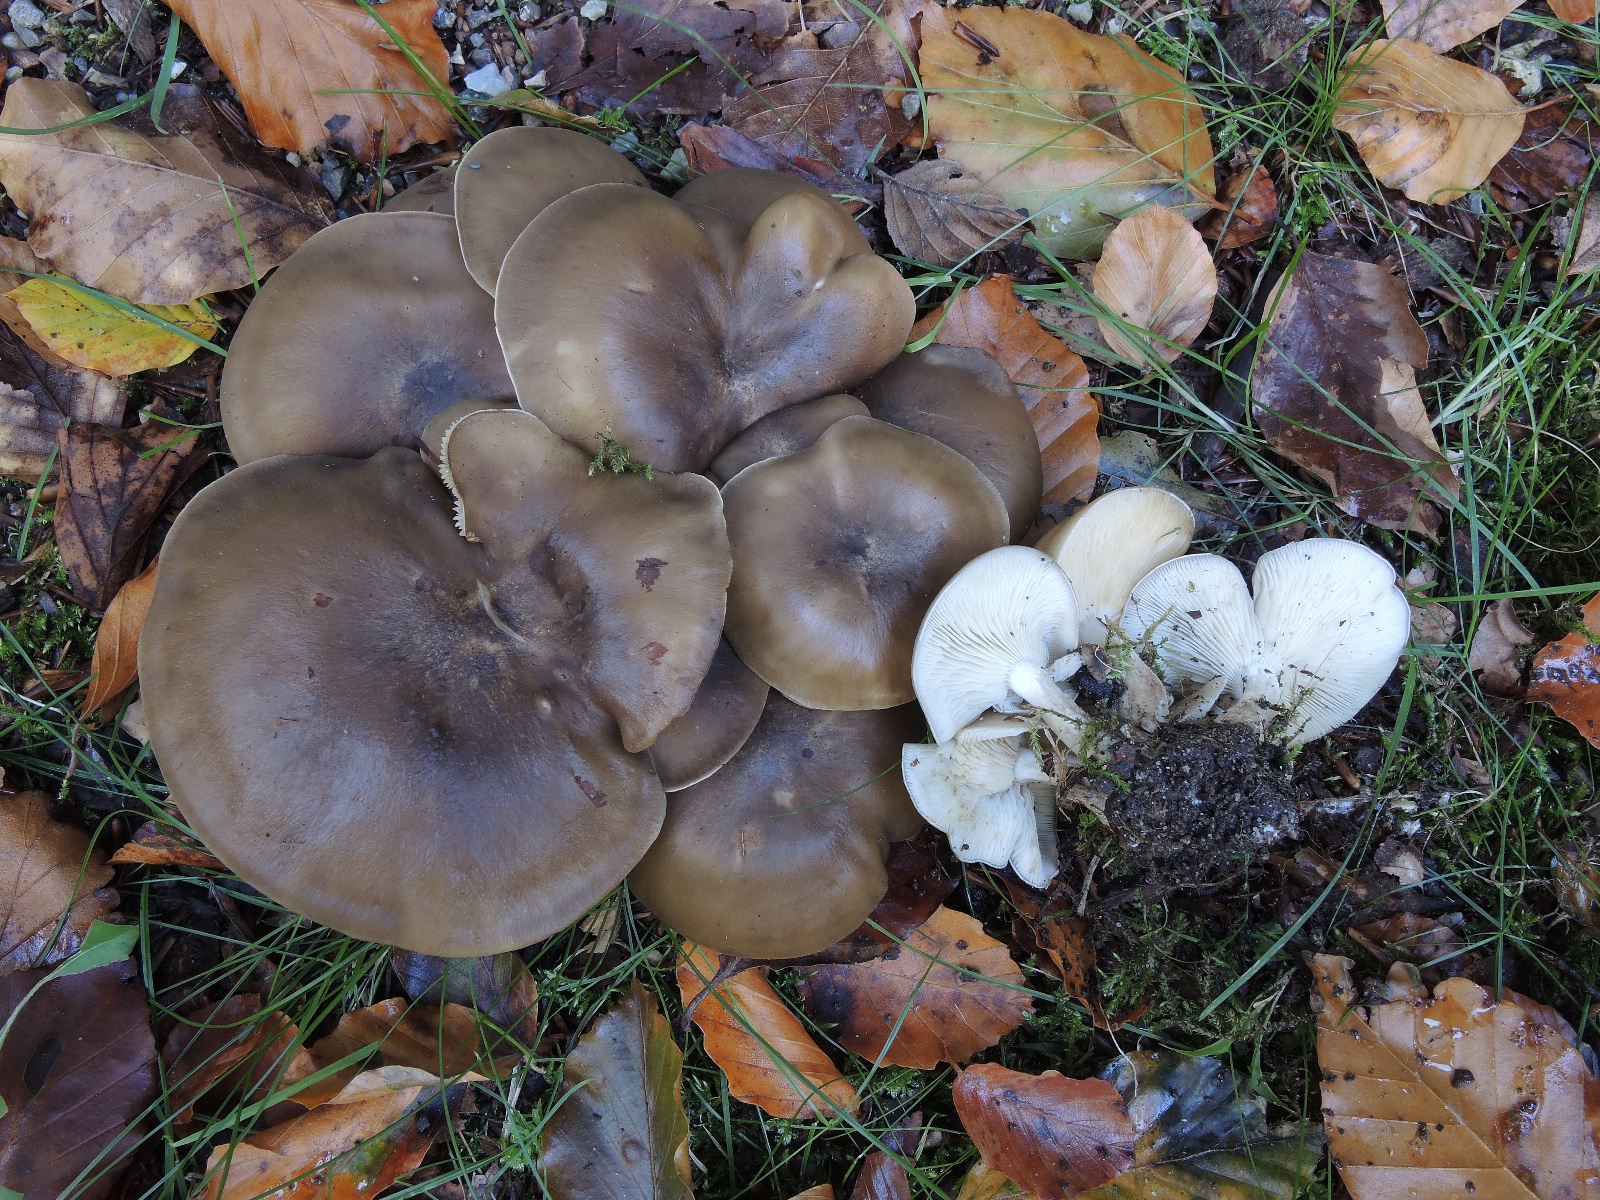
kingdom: Fungi
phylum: Basidiomycota
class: Agaricomycetes
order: Agaricales
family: Lyophyllaceae
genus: Lyophyllum
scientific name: Lyophyllum decastes
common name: Clustered domecap
